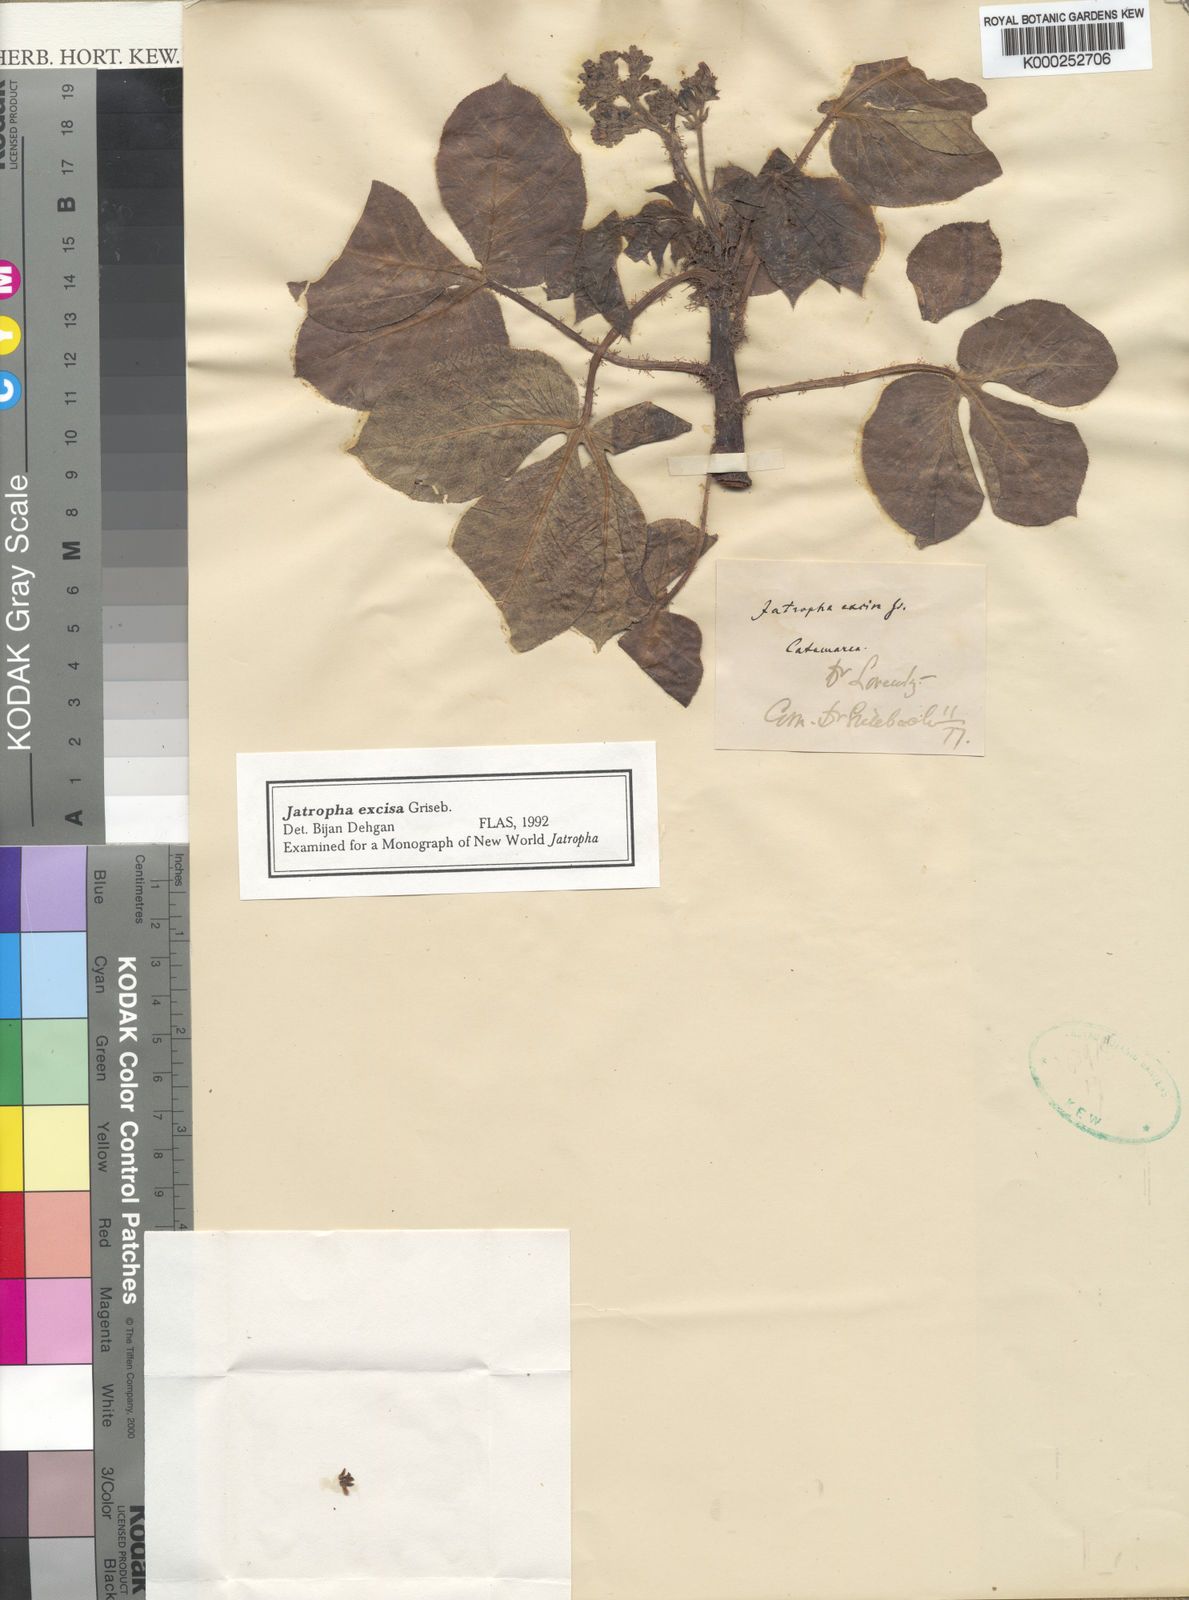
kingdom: Plantae
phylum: Tracheophyta
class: Magnoliopsida
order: Malpighiales
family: Euphorbiaceae
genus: Jatropha
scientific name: Jatropha excisa
